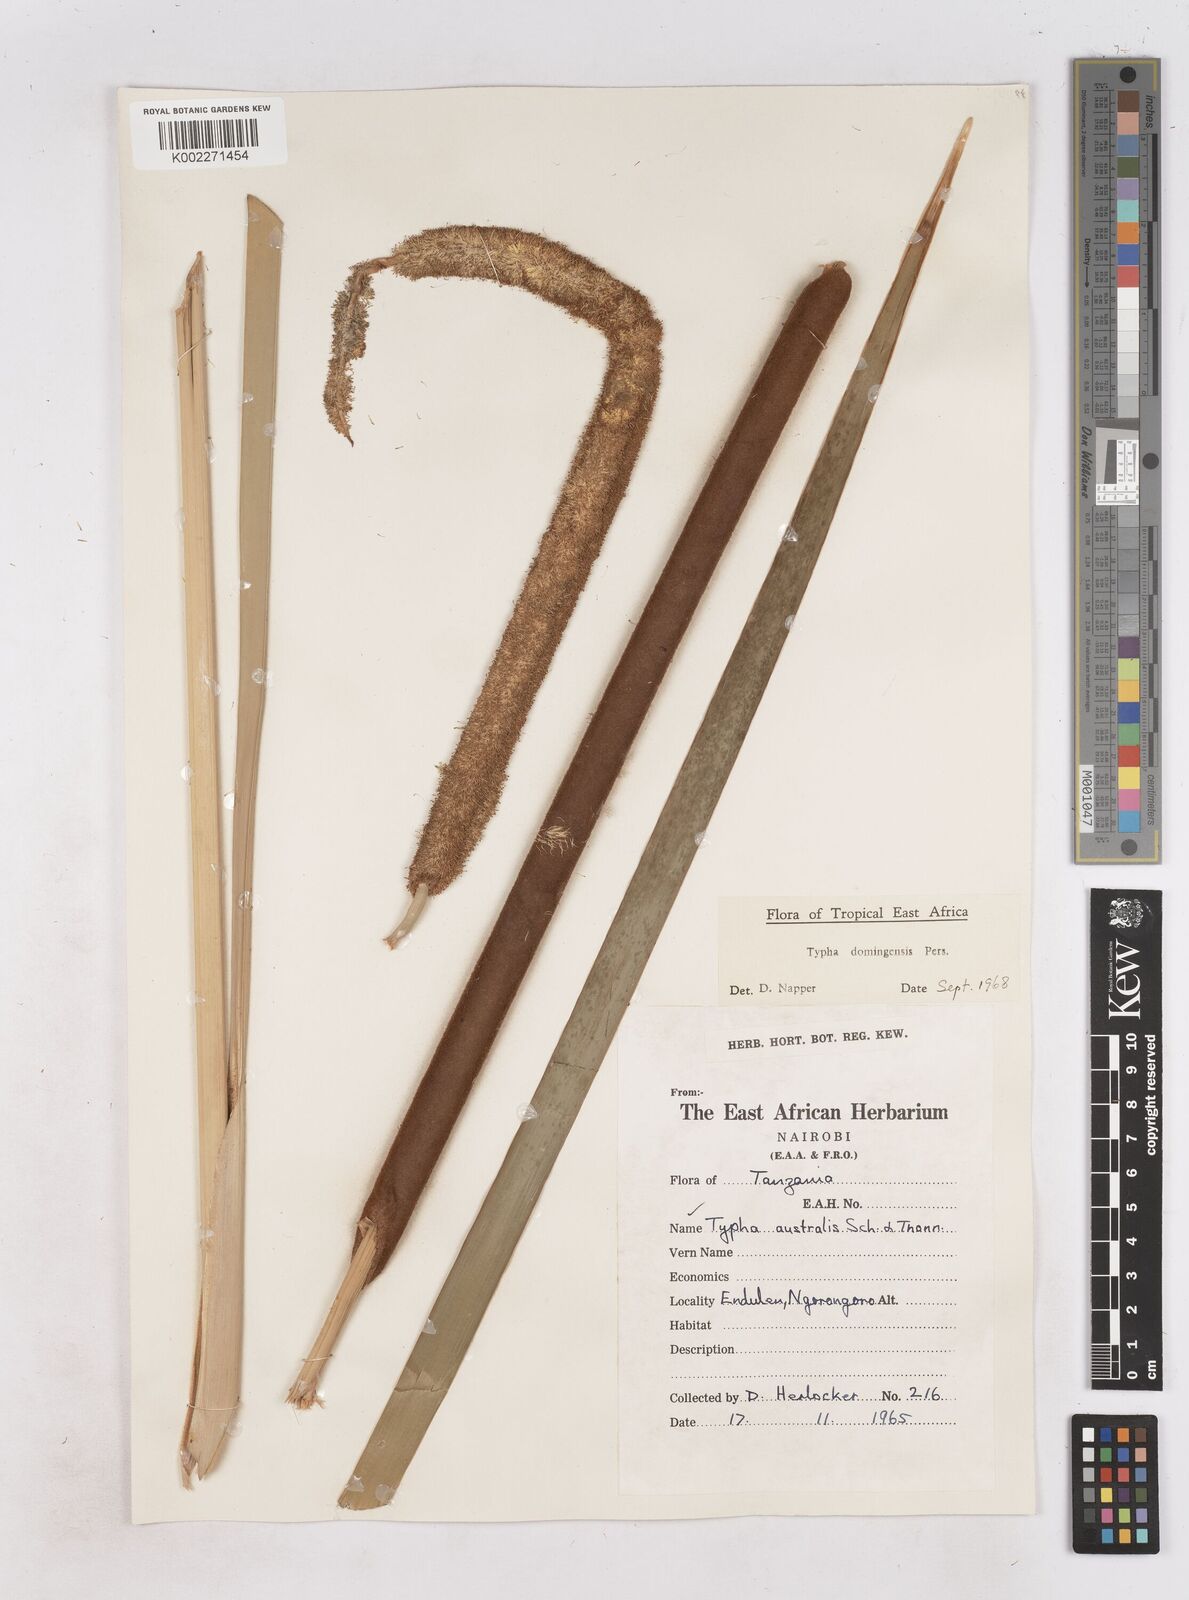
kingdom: Plantae
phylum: Tracheophyta
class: Liliopsida
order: Poales
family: Typhaceae
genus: Typha
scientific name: Typha domingensis
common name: Southern cattail
